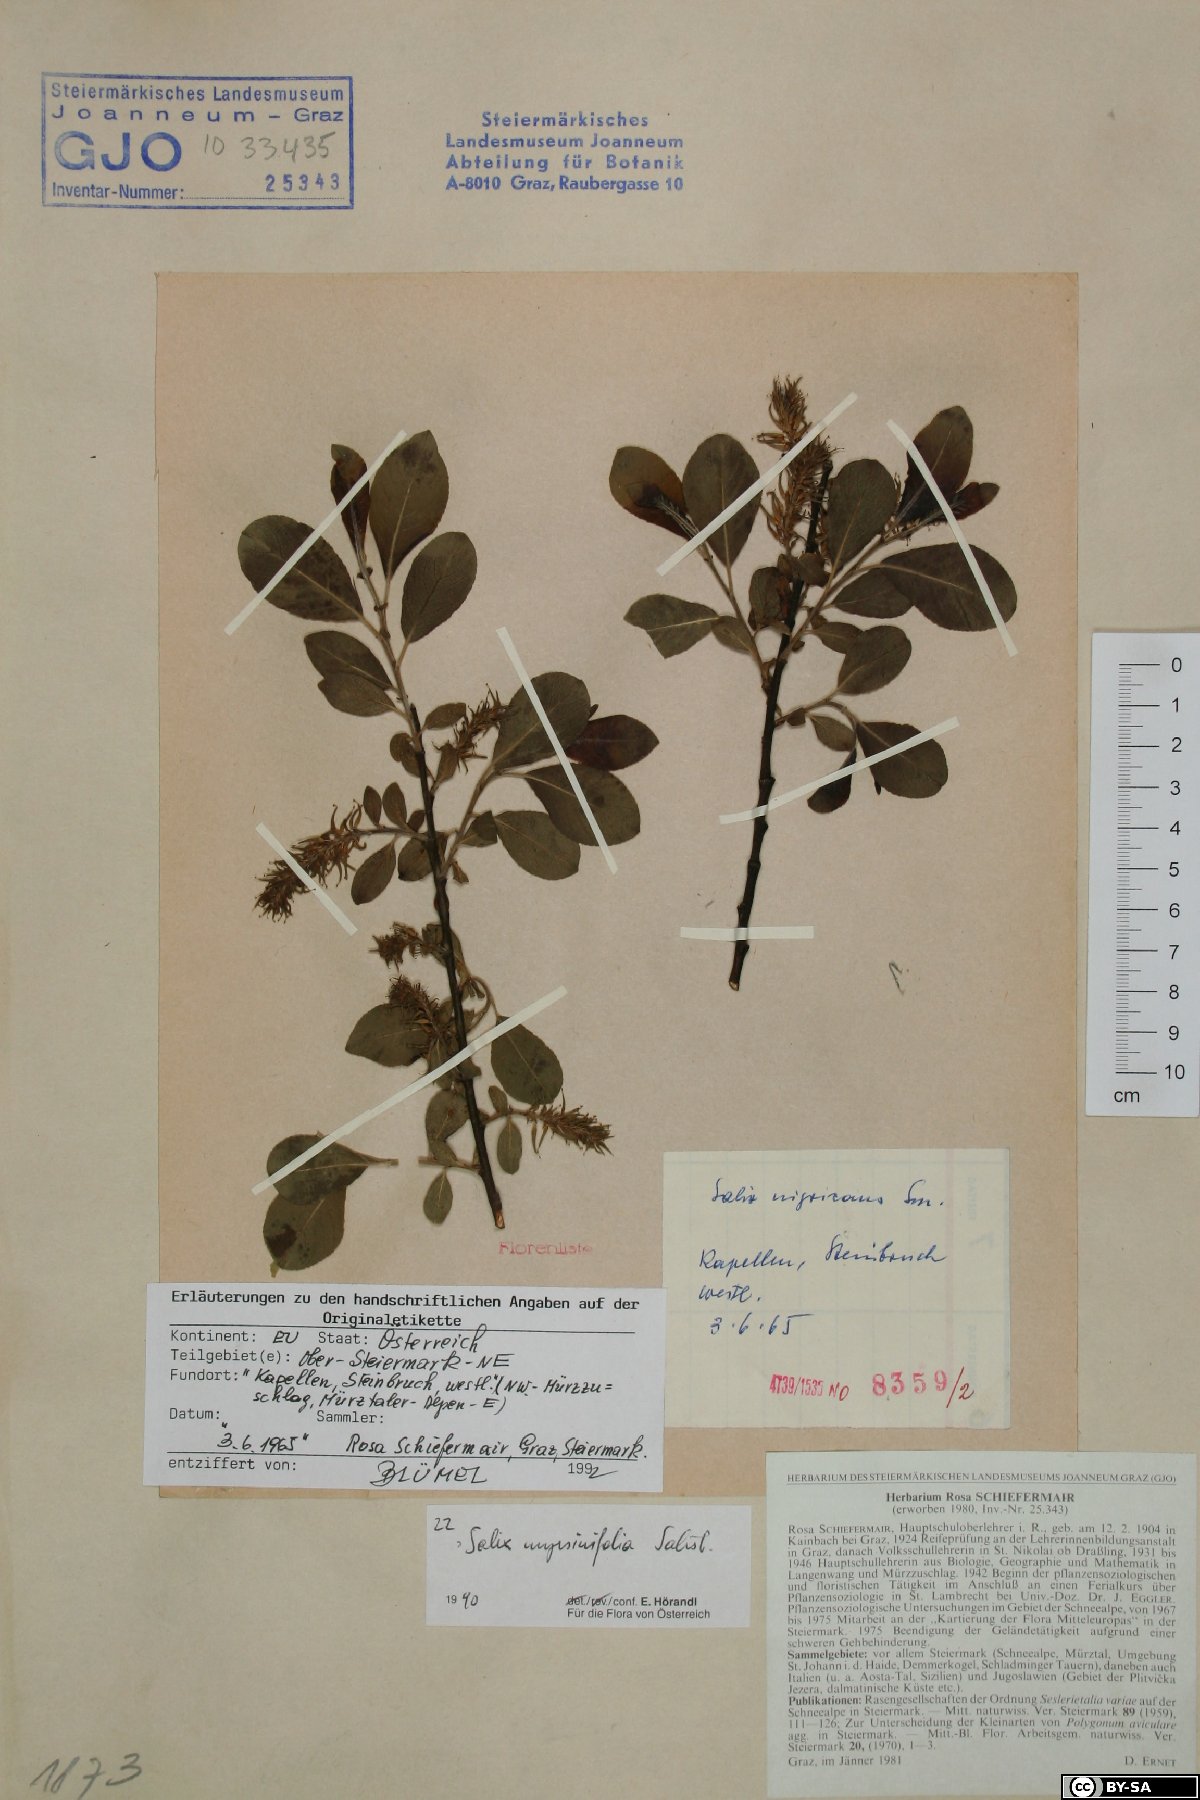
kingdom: Plantae
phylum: Tracheophyta
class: Magnoliopsida
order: Malpighiales
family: Salicaceae
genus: Salix
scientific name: Salix myrsinifolia
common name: Dark-leaved willow
